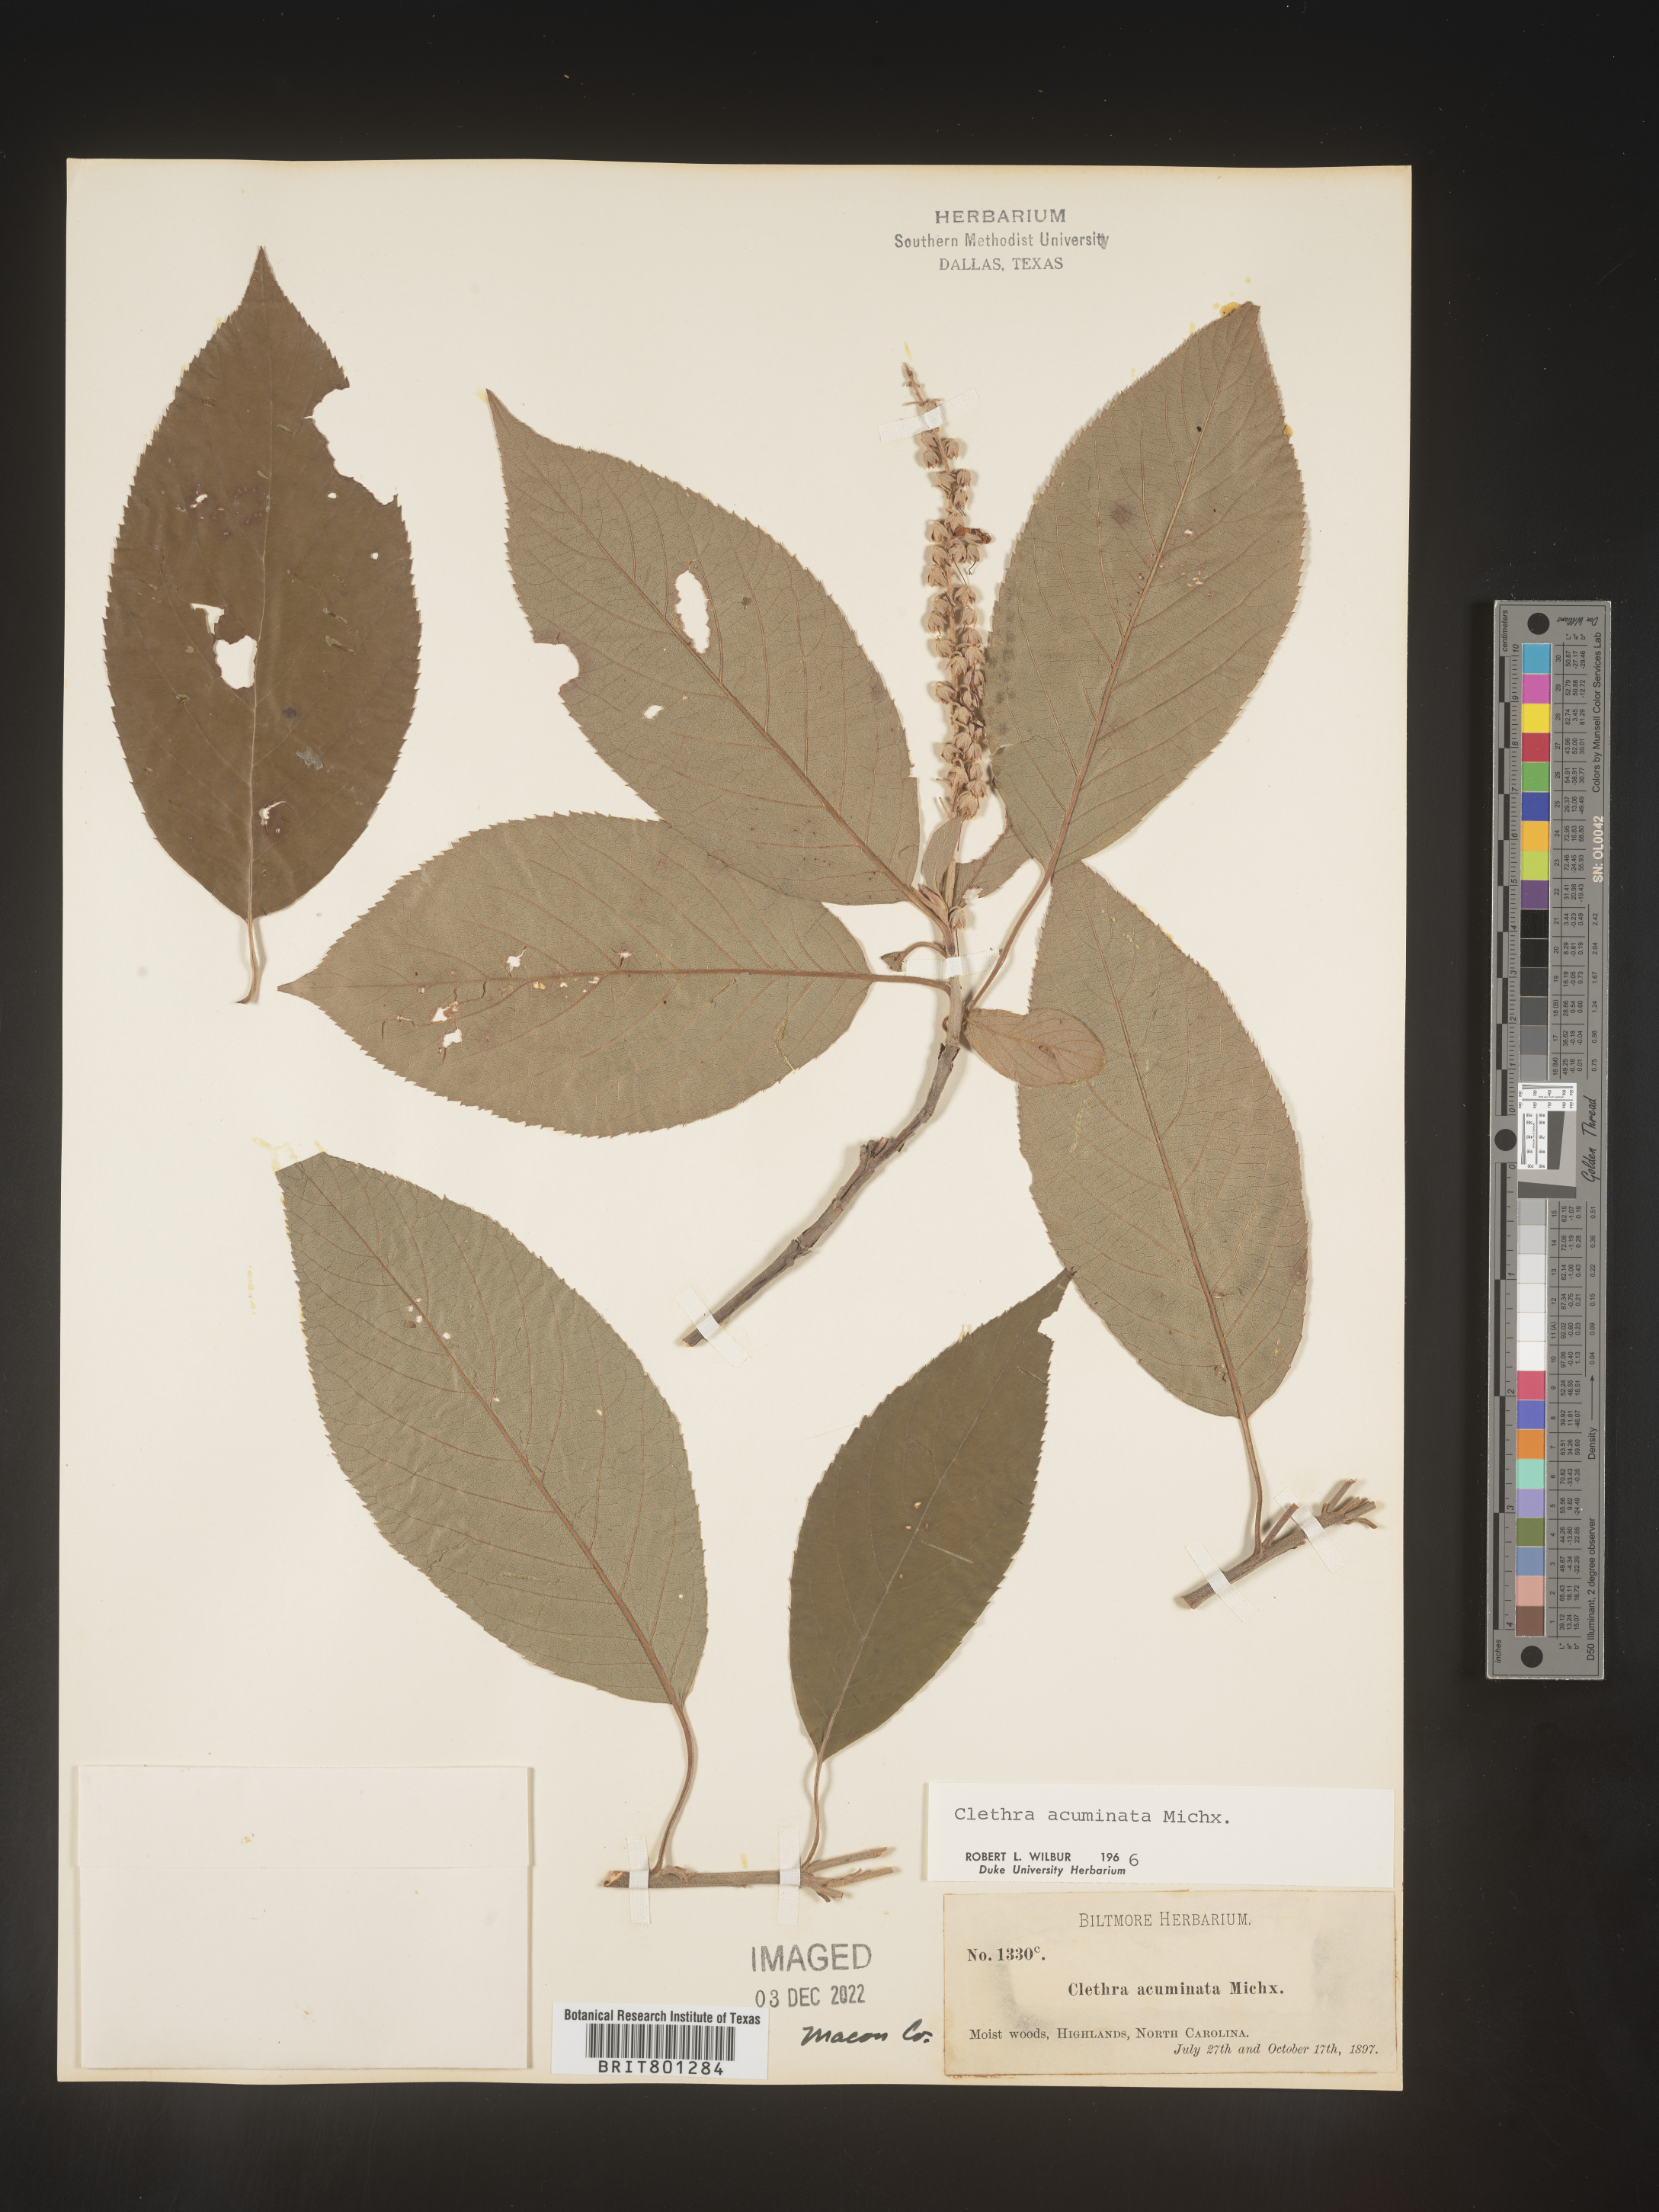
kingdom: Plantae
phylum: Tracheophyta
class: Magnoliopsida
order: Ericales
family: Clethraceae
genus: Clethra
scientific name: Clethra acuminata
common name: Mountain sweet pepperbush
